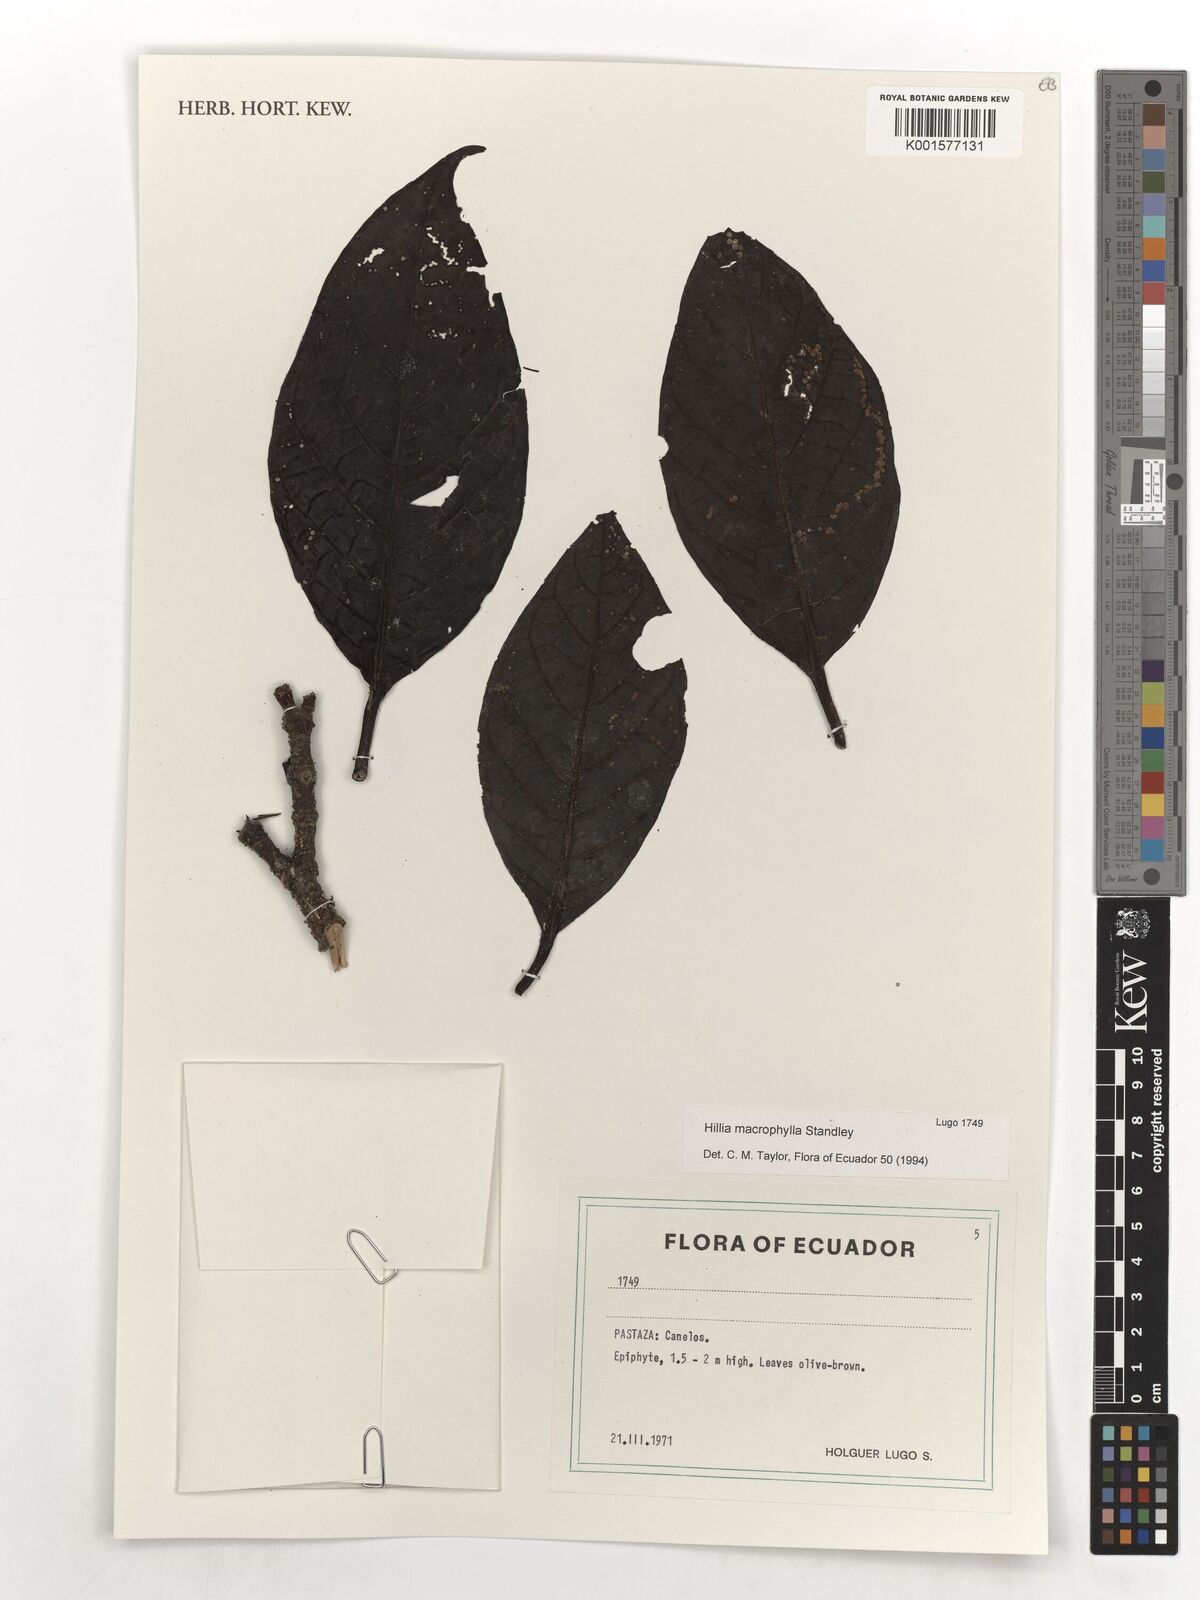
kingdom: Plantae
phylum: Tracheophyta
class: Magnoliopsida
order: Gentianales
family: Rubiaceae
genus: Hillia
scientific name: Hillia macrophylla
